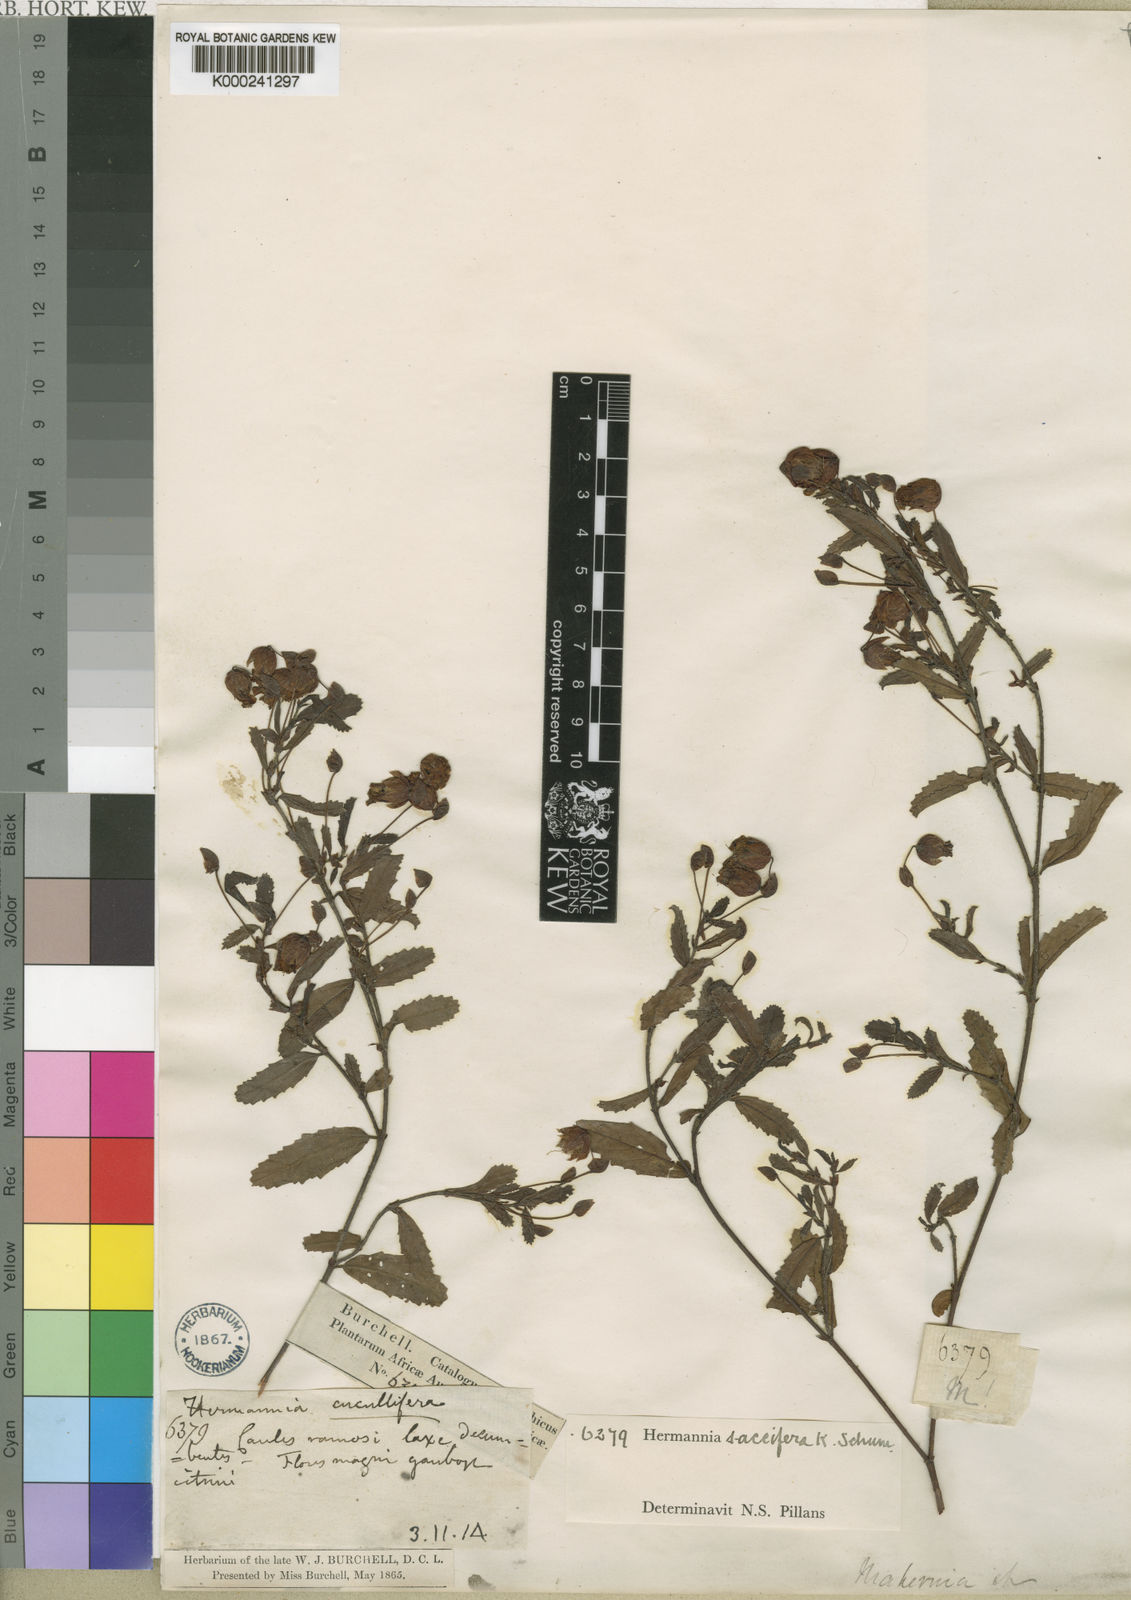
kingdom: Plantae
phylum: Tracheophyta
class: Magnoliopsida
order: Malvales
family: Malvaceae
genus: Hermannia
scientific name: Hermannia saccifera
